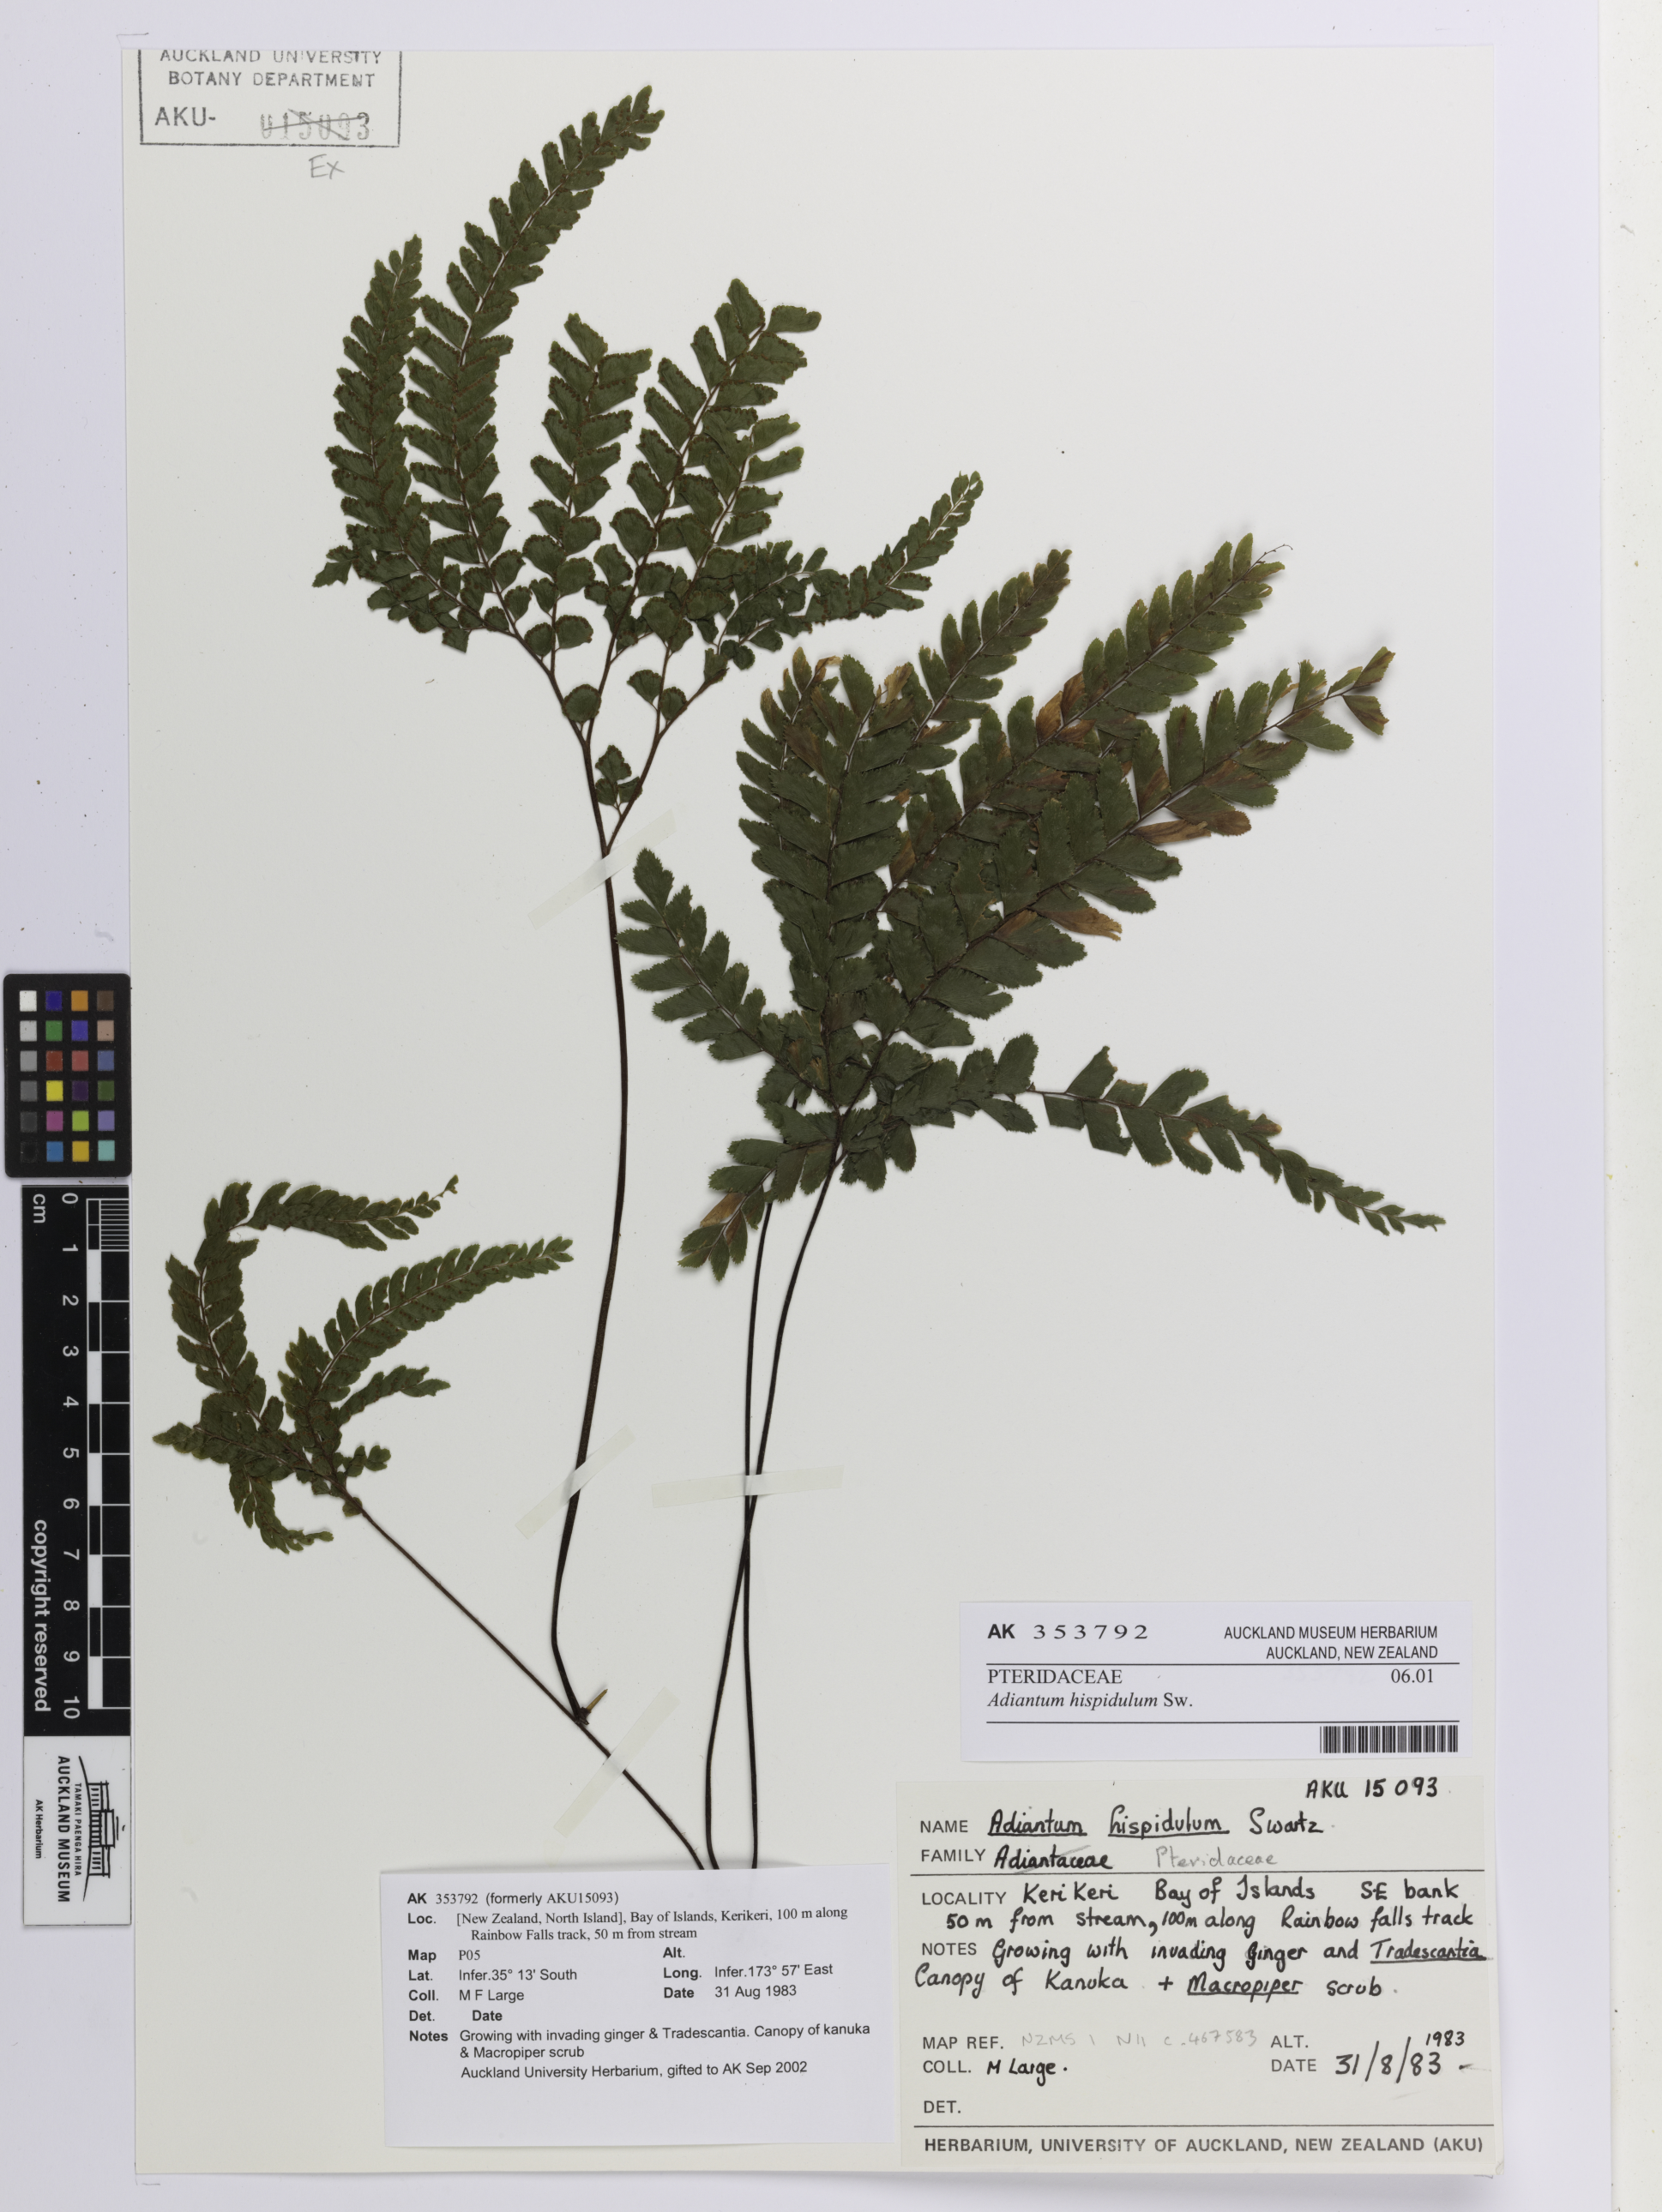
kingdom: Plantae
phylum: Tracheophyta
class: Polypodiopsida
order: Polypodiales
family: Pteridaceae
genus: Adiantum
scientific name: Adiantum hispidulum
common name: Rough maidenhair
